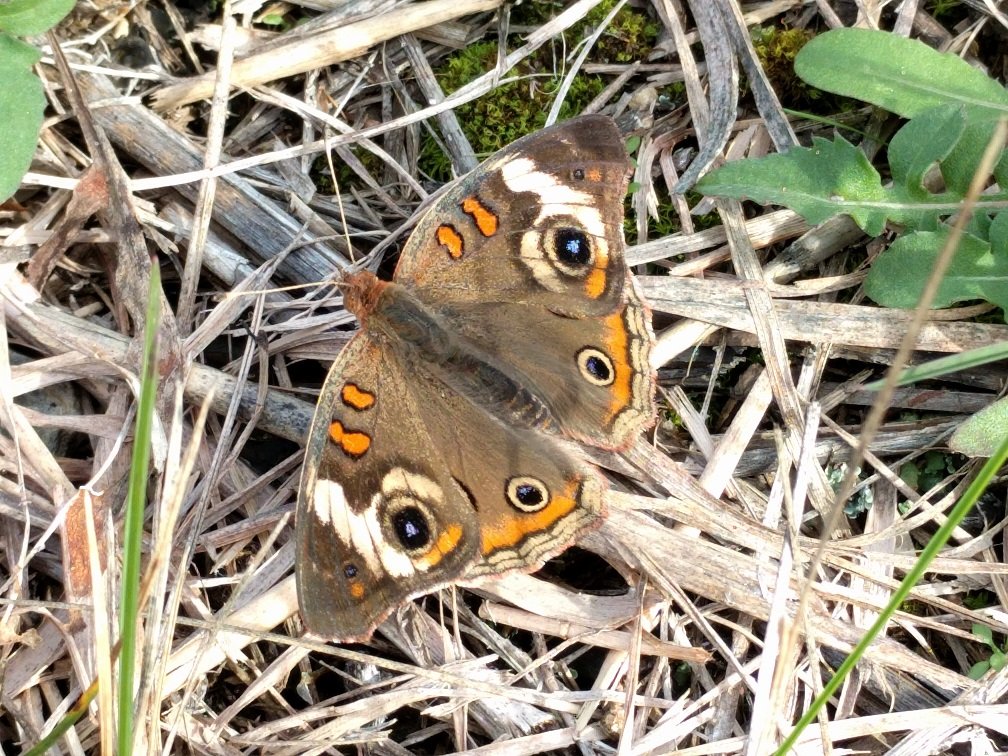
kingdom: Animalia
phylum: Arthropoda
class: Insecta
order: Lepidoptera
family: Nymphalidae
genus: Junonia
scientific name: Junonia coenia
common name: Common Buckeye
